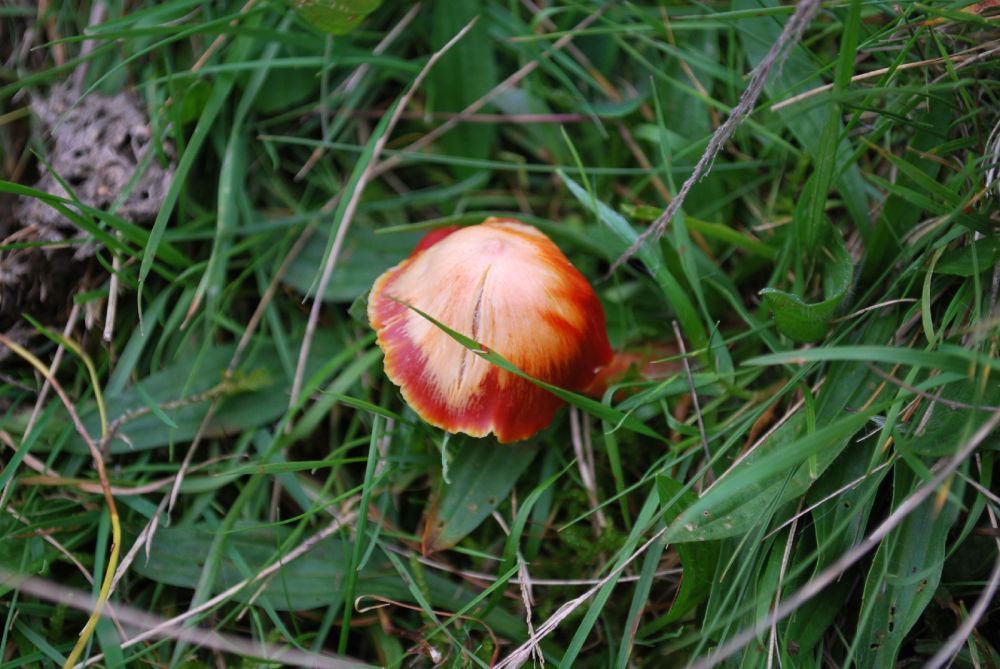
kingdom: Fungi
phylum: Basidiomycota
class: Agaricomycetes
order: Agaricales
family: Hygrophoraceae
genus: Hygrocybe
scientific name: Hygrocybe coccinea
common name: cinnober-vokshat
